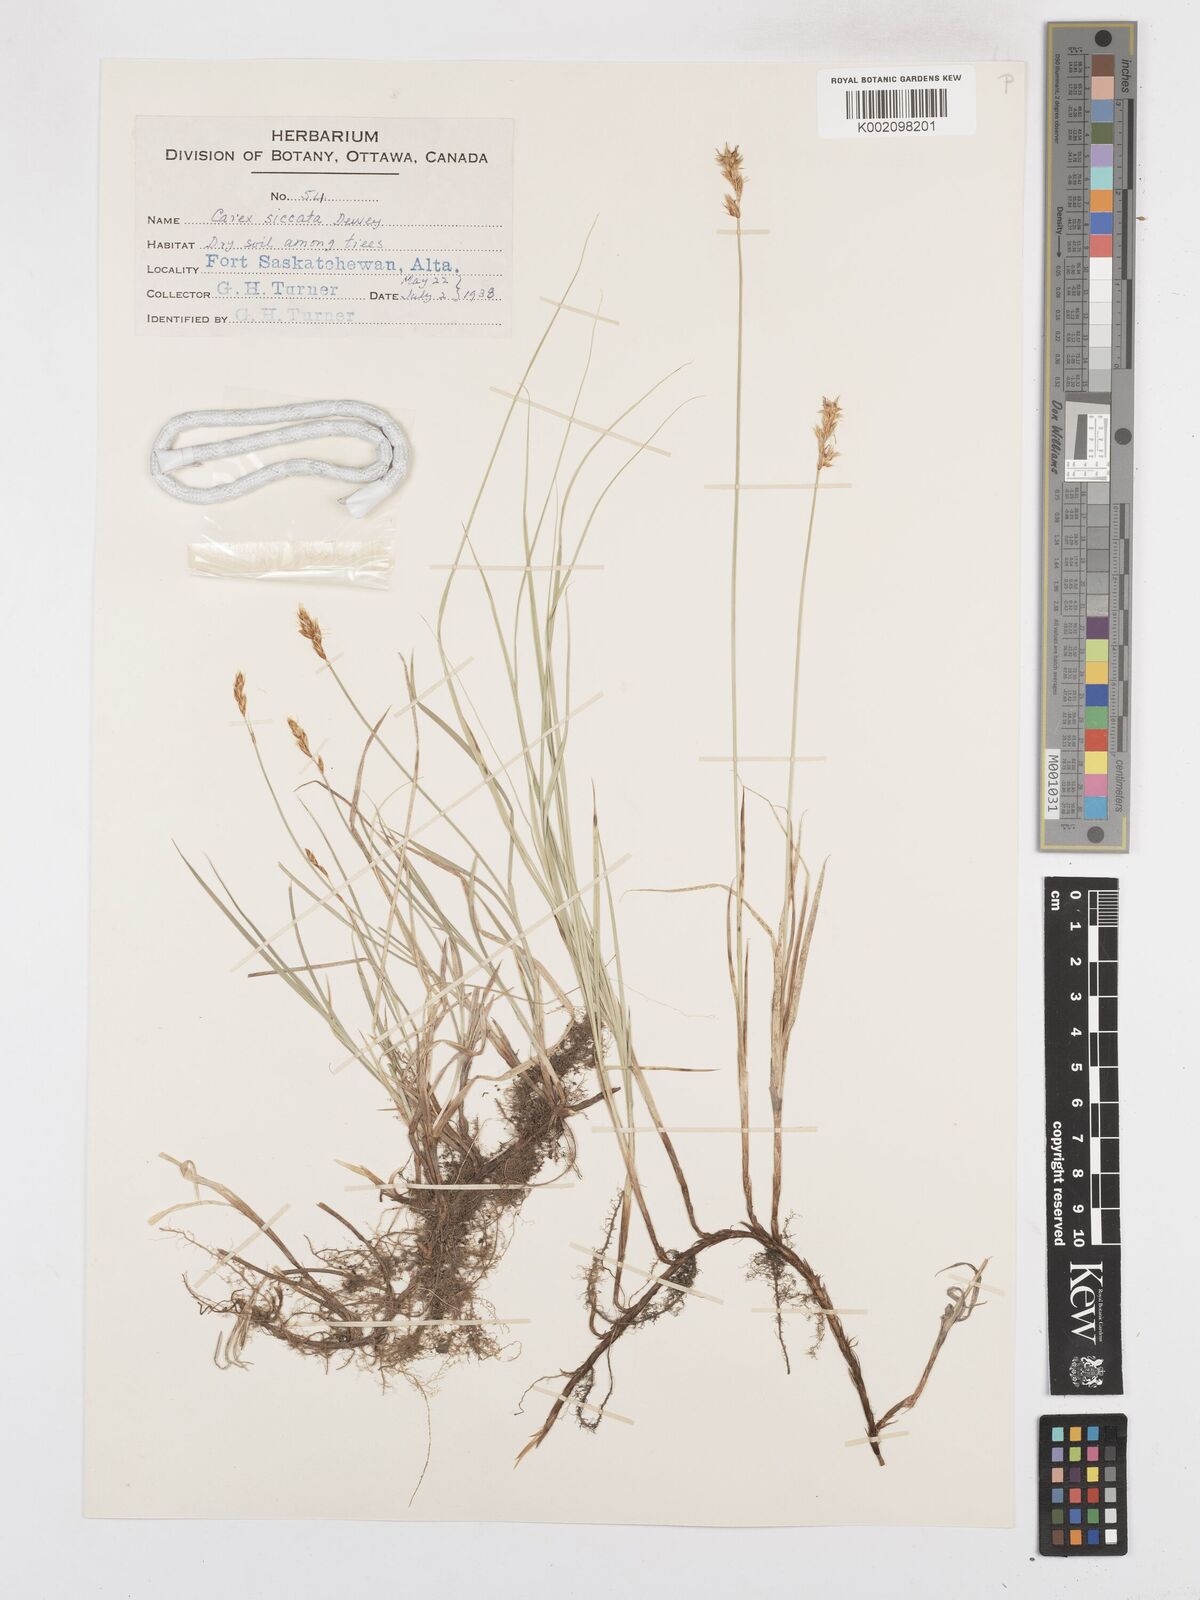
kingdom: Plantae
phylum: Tracheophyta
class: Liliopsida
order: Poales
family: Cyperaceae
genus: Carex
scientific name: Carex foenea
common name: Bronze sedge
